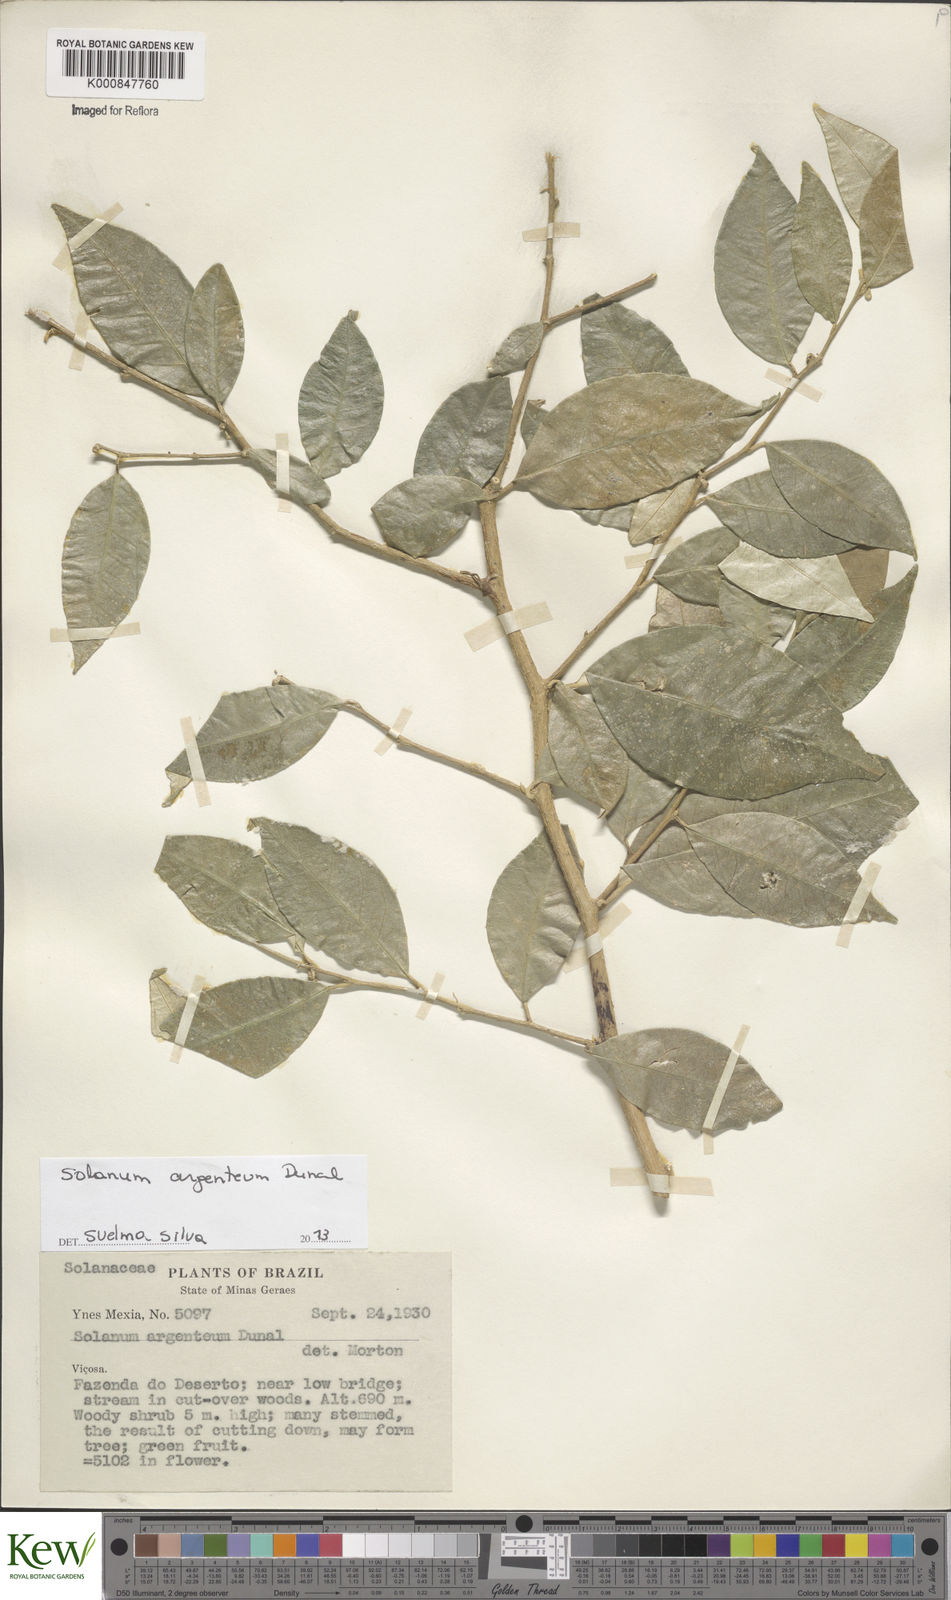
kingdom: Plantae
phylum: Tracheophyta
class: Magnoliopsida
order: Solanales
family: Solanaceae
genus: Solanum
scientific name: Solanum swartzianum
